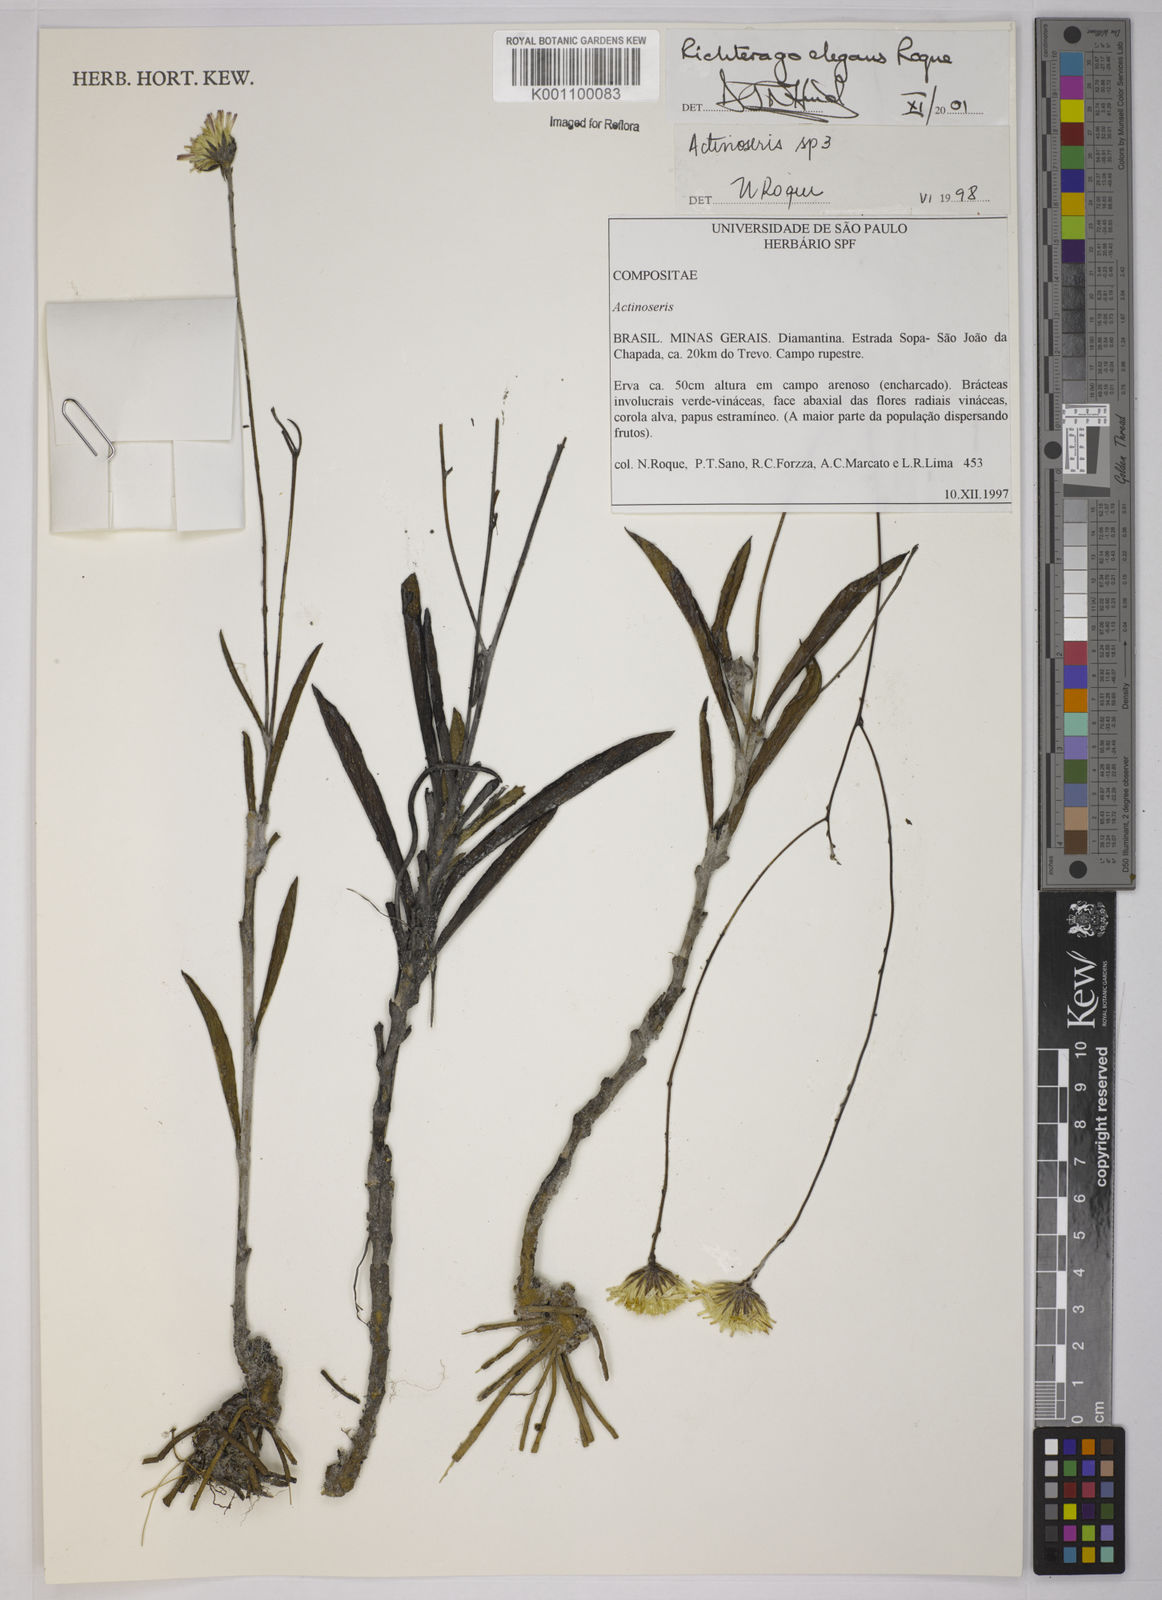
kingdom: Plantae
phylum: Tracheophyta
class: Magnoliopsida
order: Asterales
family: Asteraceae
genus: Richterago
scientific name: Richterago elegans
